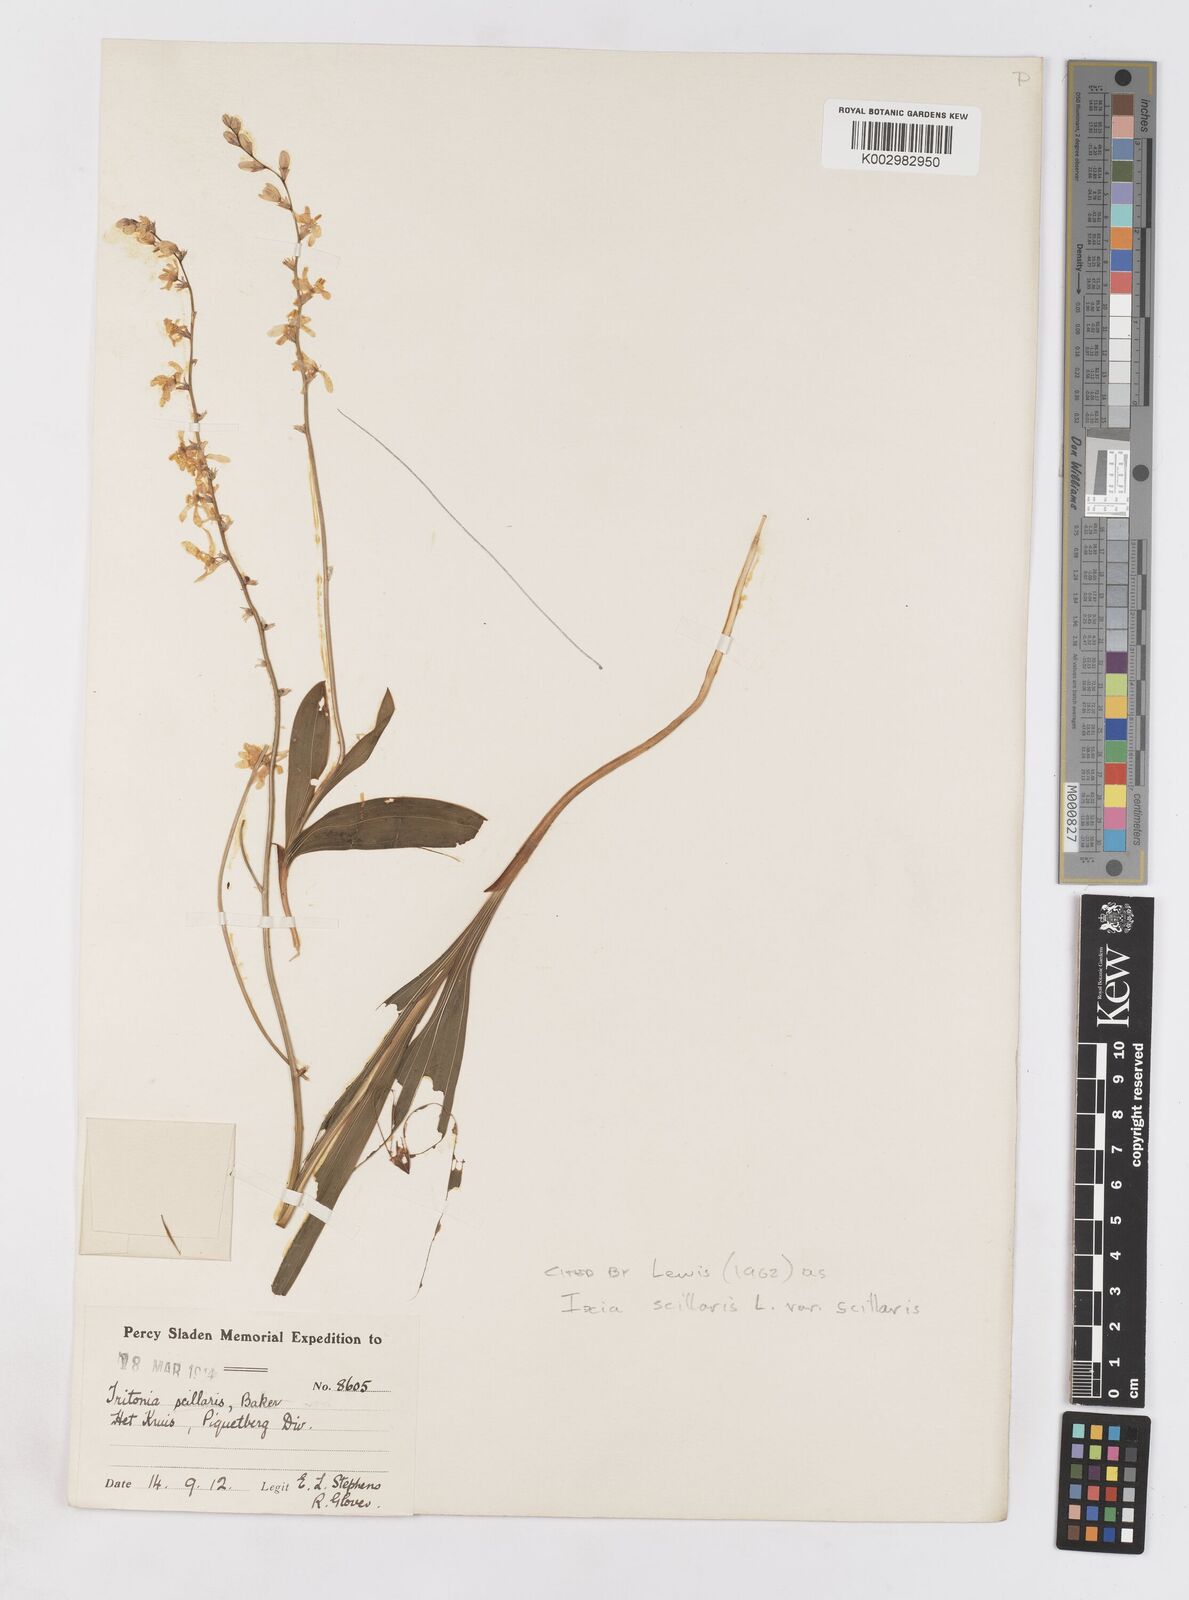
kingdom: Plantae
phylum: Tracheophyta
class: Liliopsida
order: Asparagales
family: Iridaceae
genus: Ixia
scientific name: Ixia scillaris
